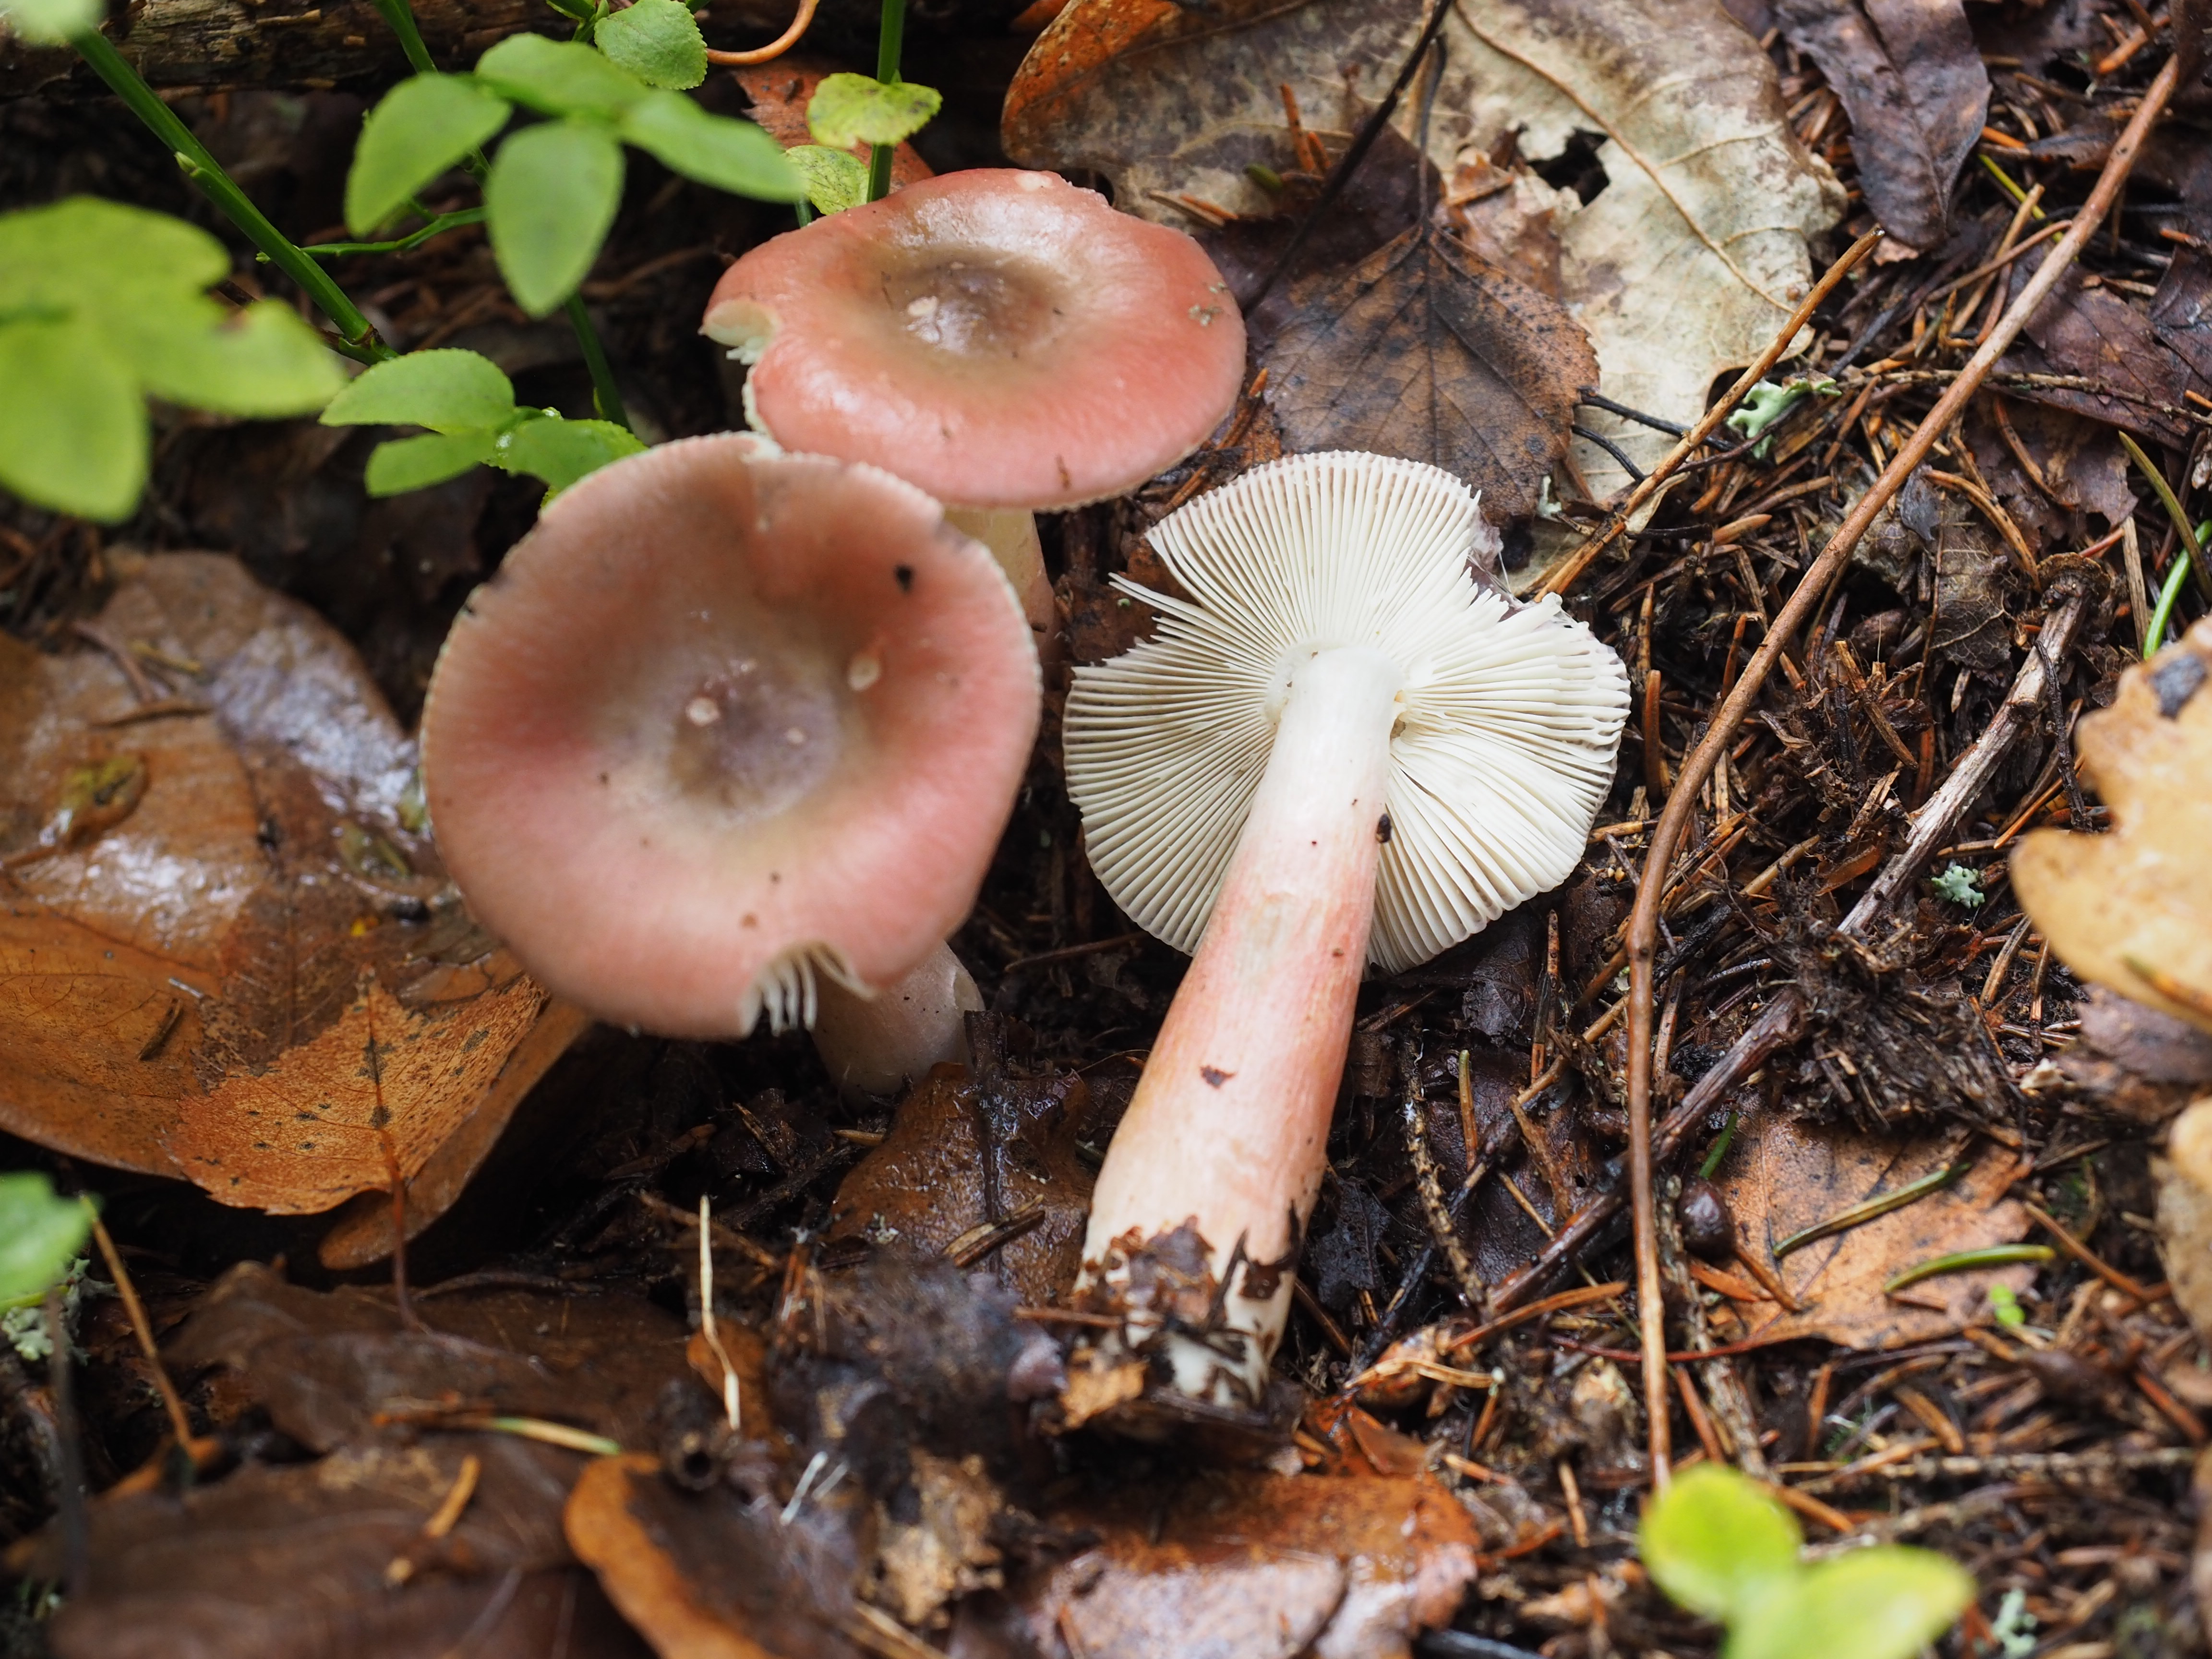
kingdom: Fungi
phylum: Basidiomycota
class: Agaricomycetes
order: Russulales
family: Russulaceae
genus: Russula
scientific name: Russula gracillima
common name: Slender brittlegill
